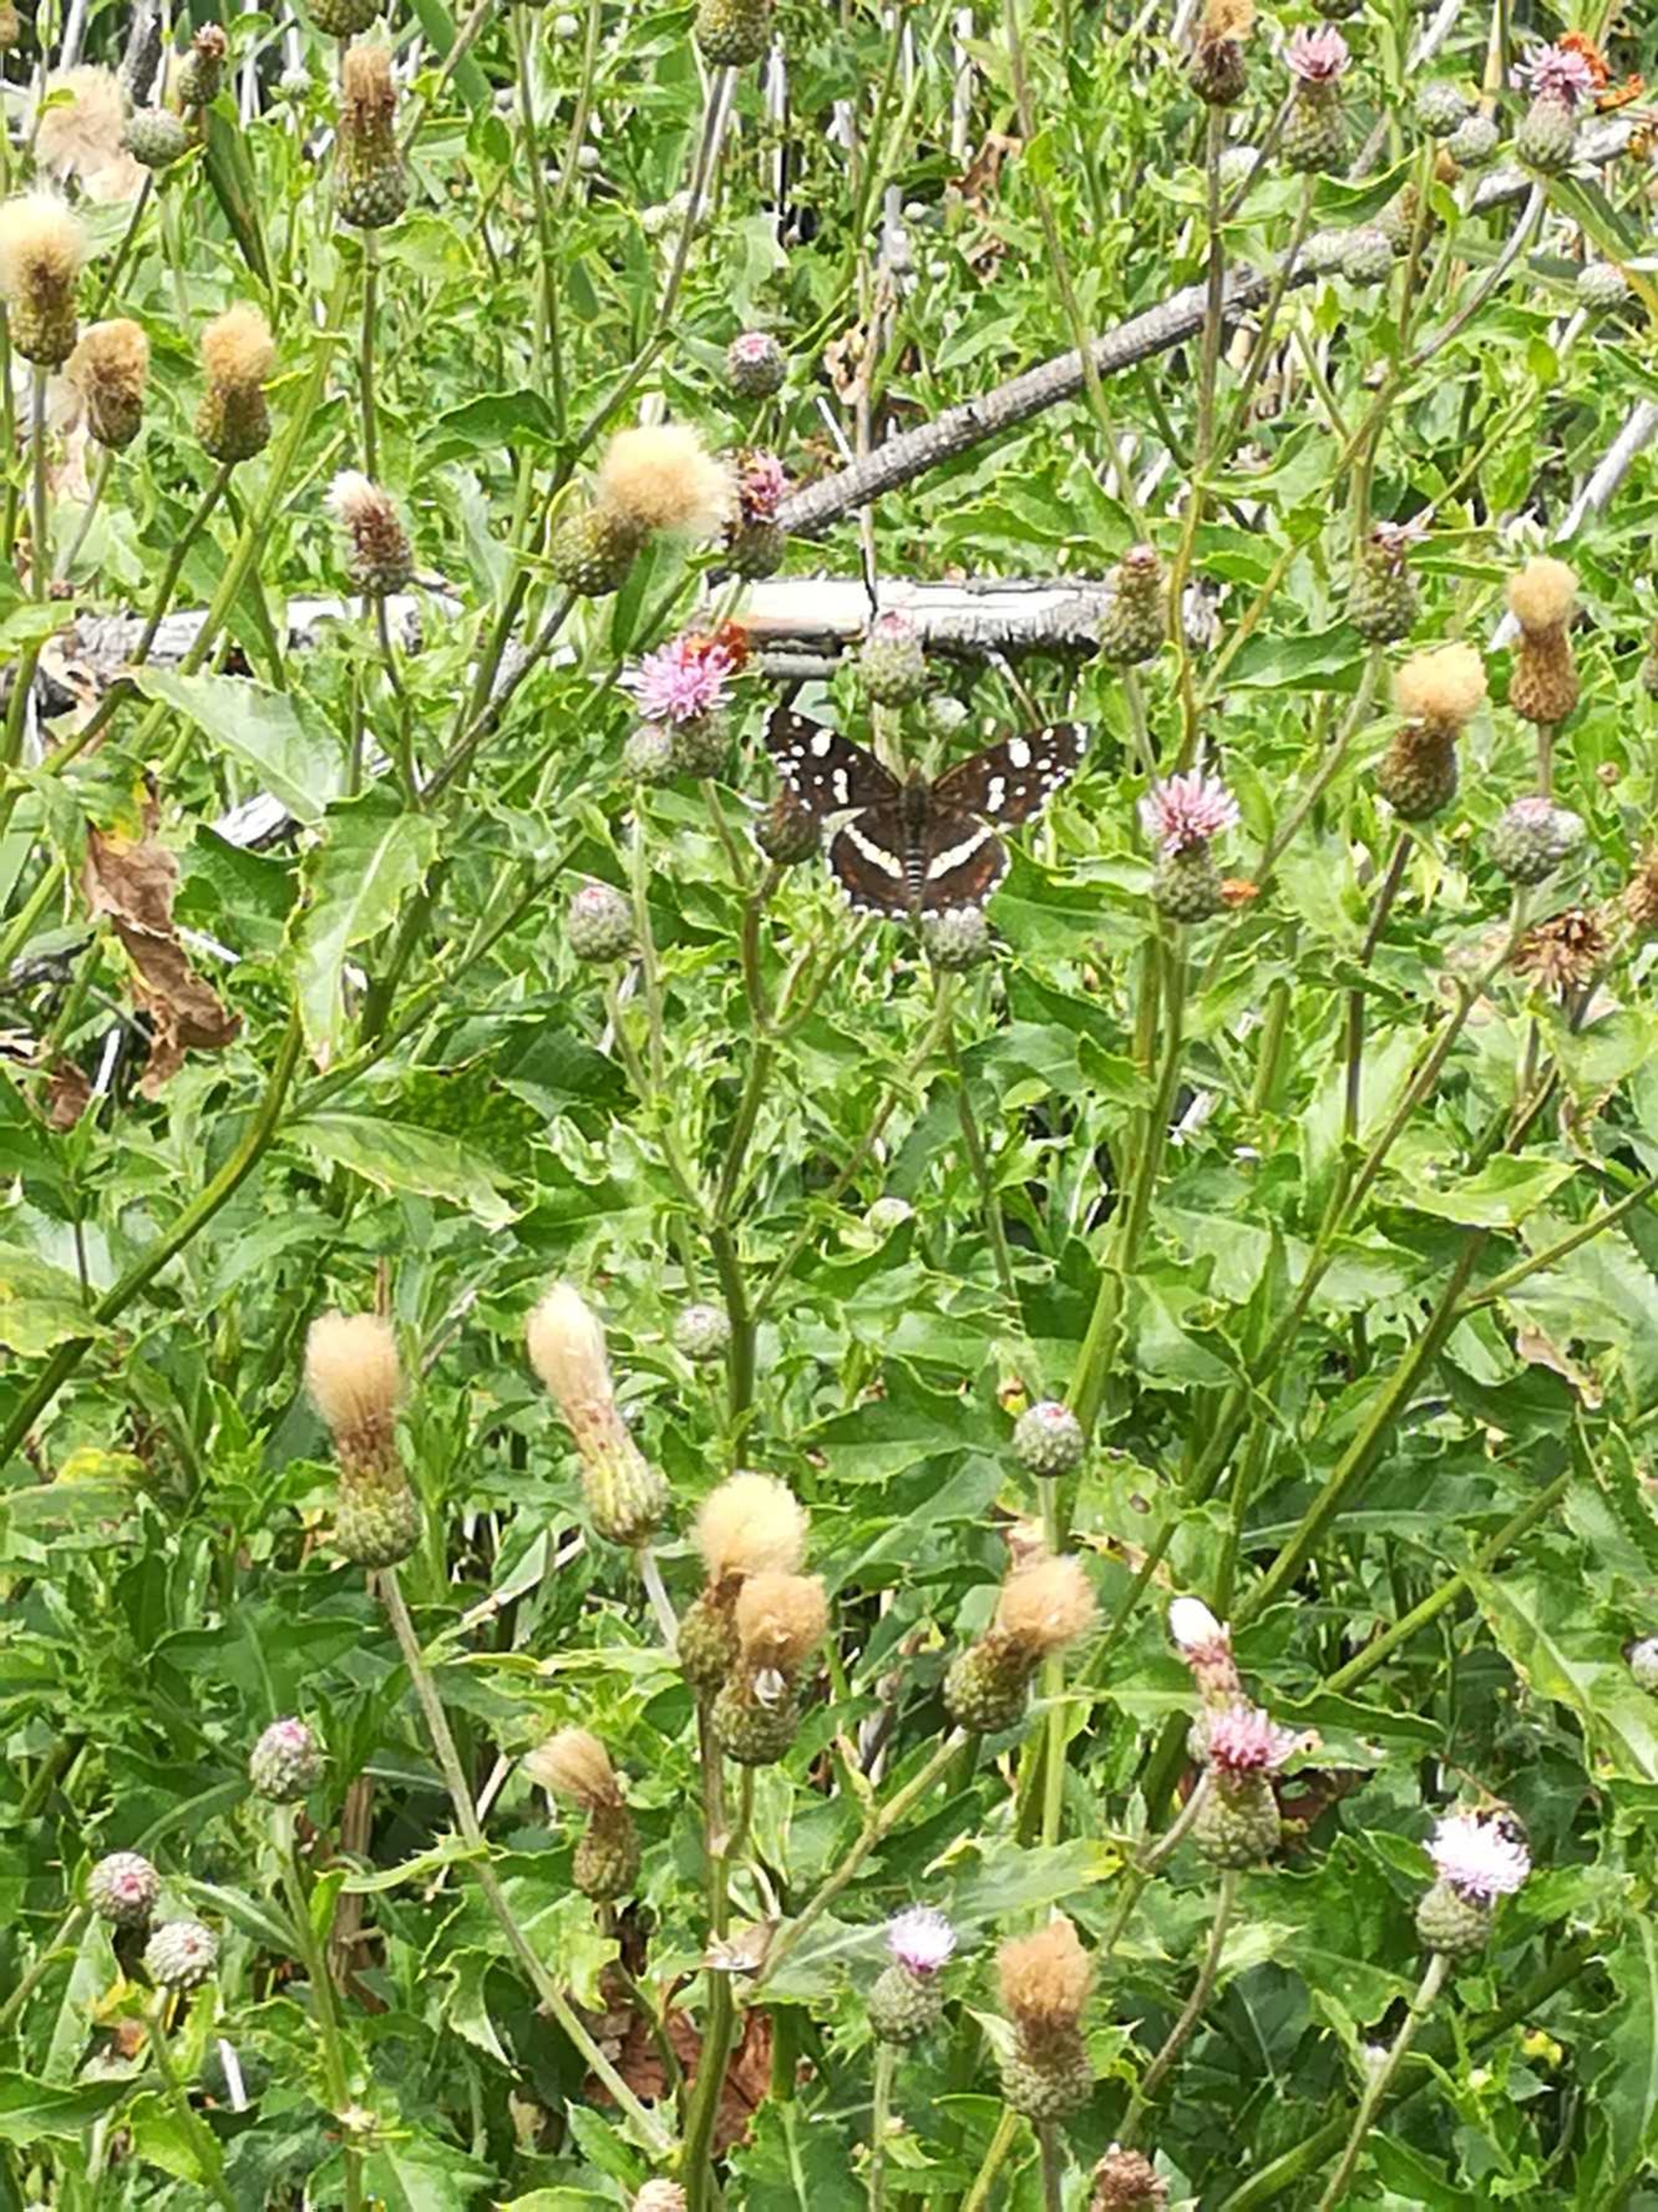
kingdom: Animalia
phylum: Arthropoda
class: Insecta
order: Lepidoptera
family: Nymphalidae
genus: Araschnia
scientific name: Araschnia levana
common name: Nældesommerfugl
